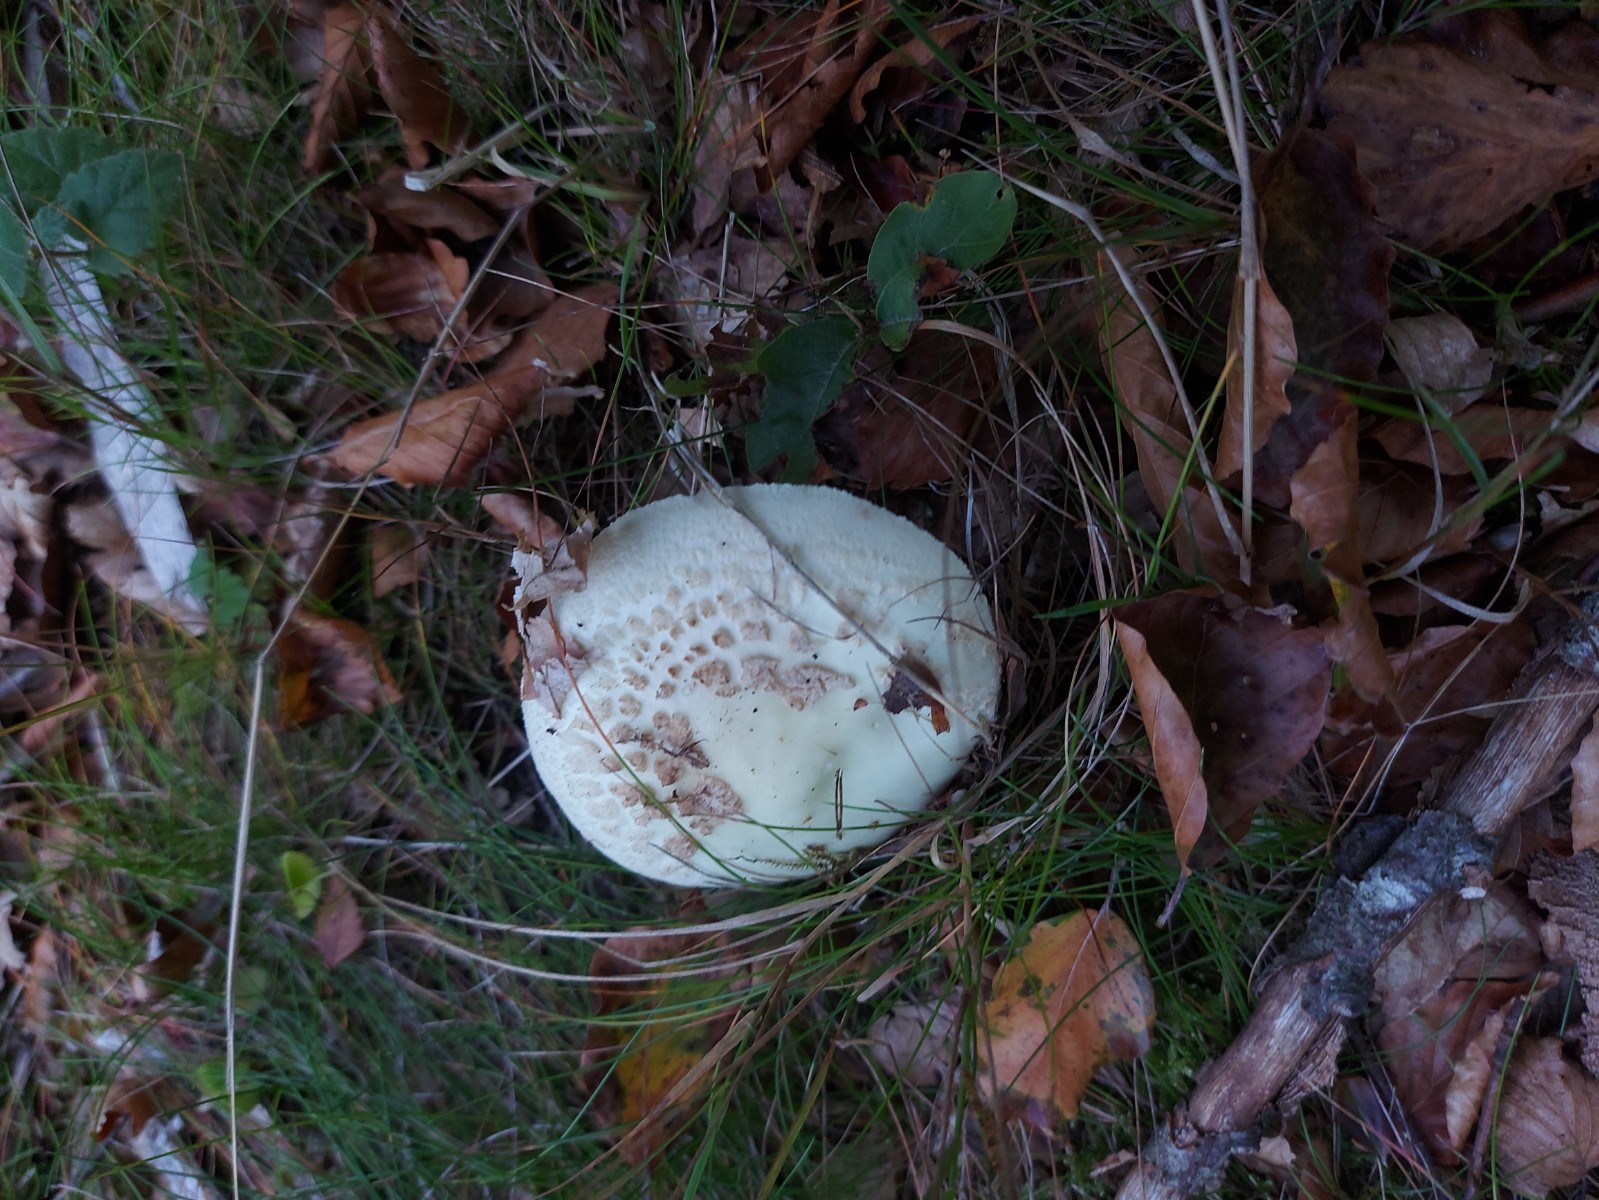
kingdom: Fungi
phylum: Basidiomycota
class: Agaricomycetes
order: Agaricales
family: Amanitaceae
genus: Amanita
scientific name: Amanita citrina
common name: False death-cap
